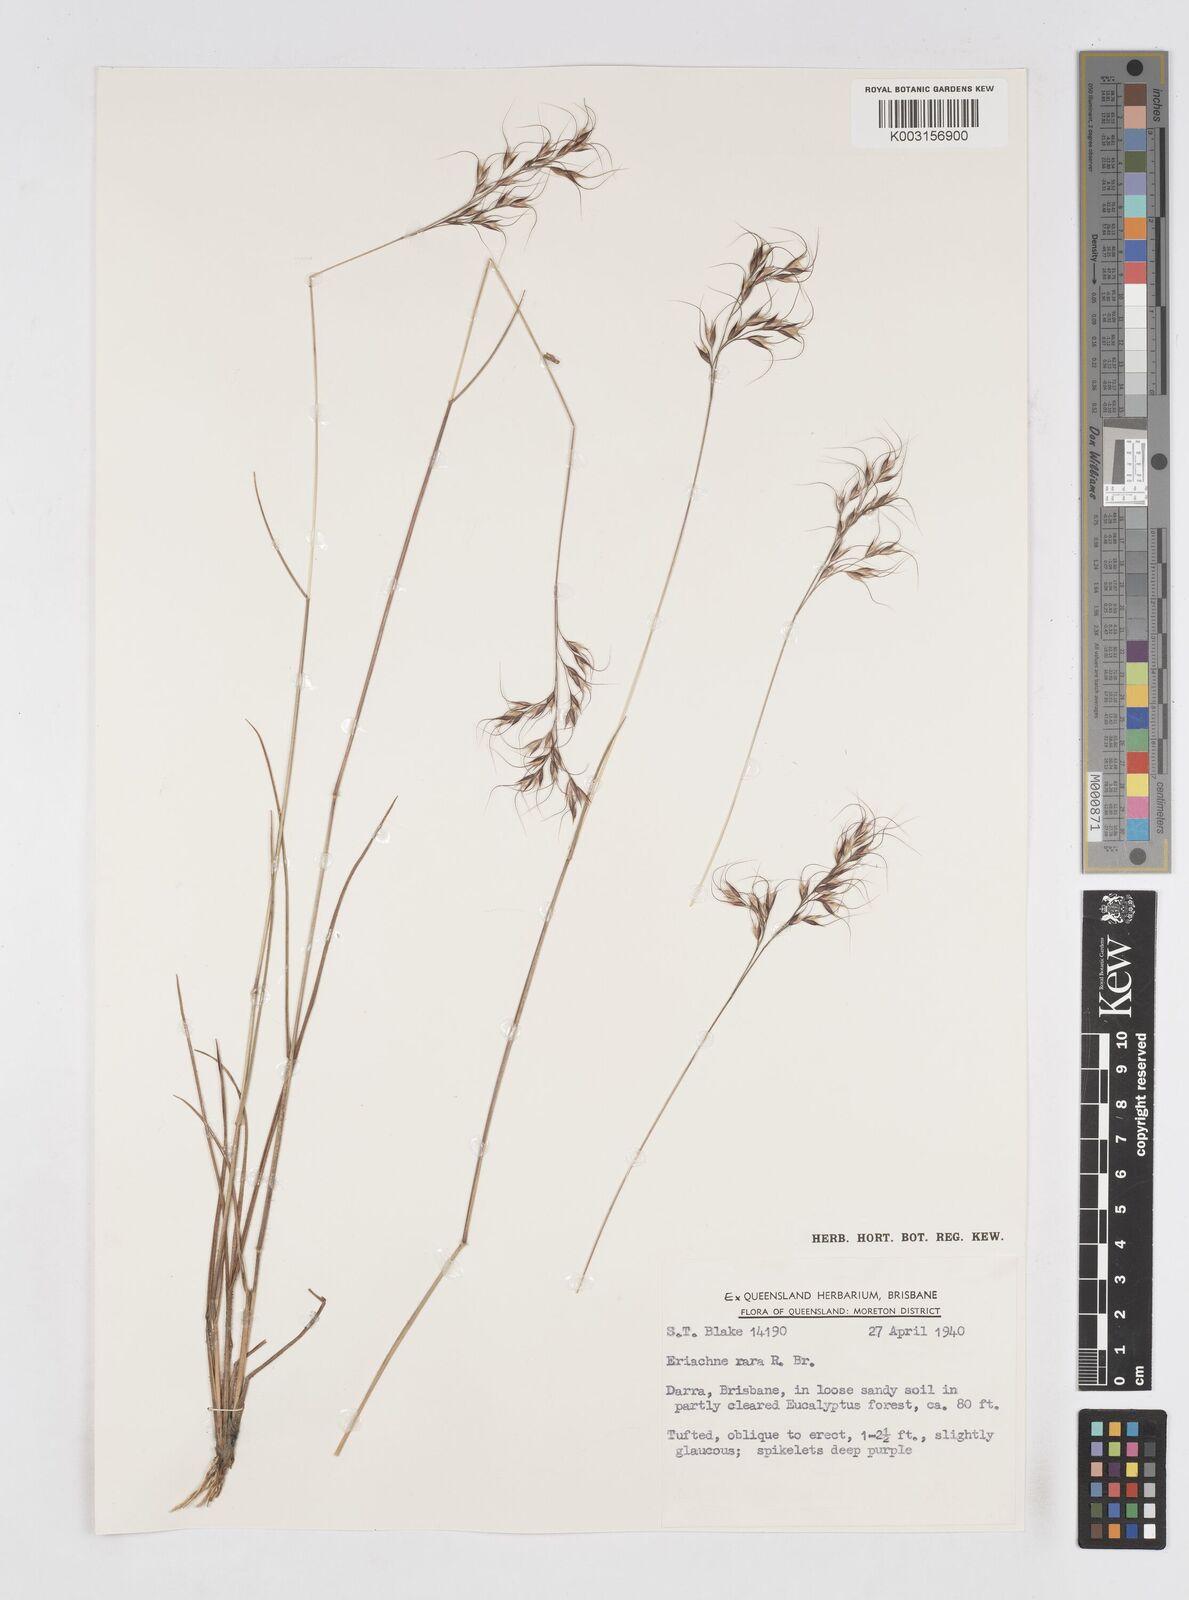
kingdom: Plantae
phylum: Tracheophyta
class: Liliopsida
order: Poales
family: Poaceae
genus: Eriachne
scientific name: Eriachne rara
